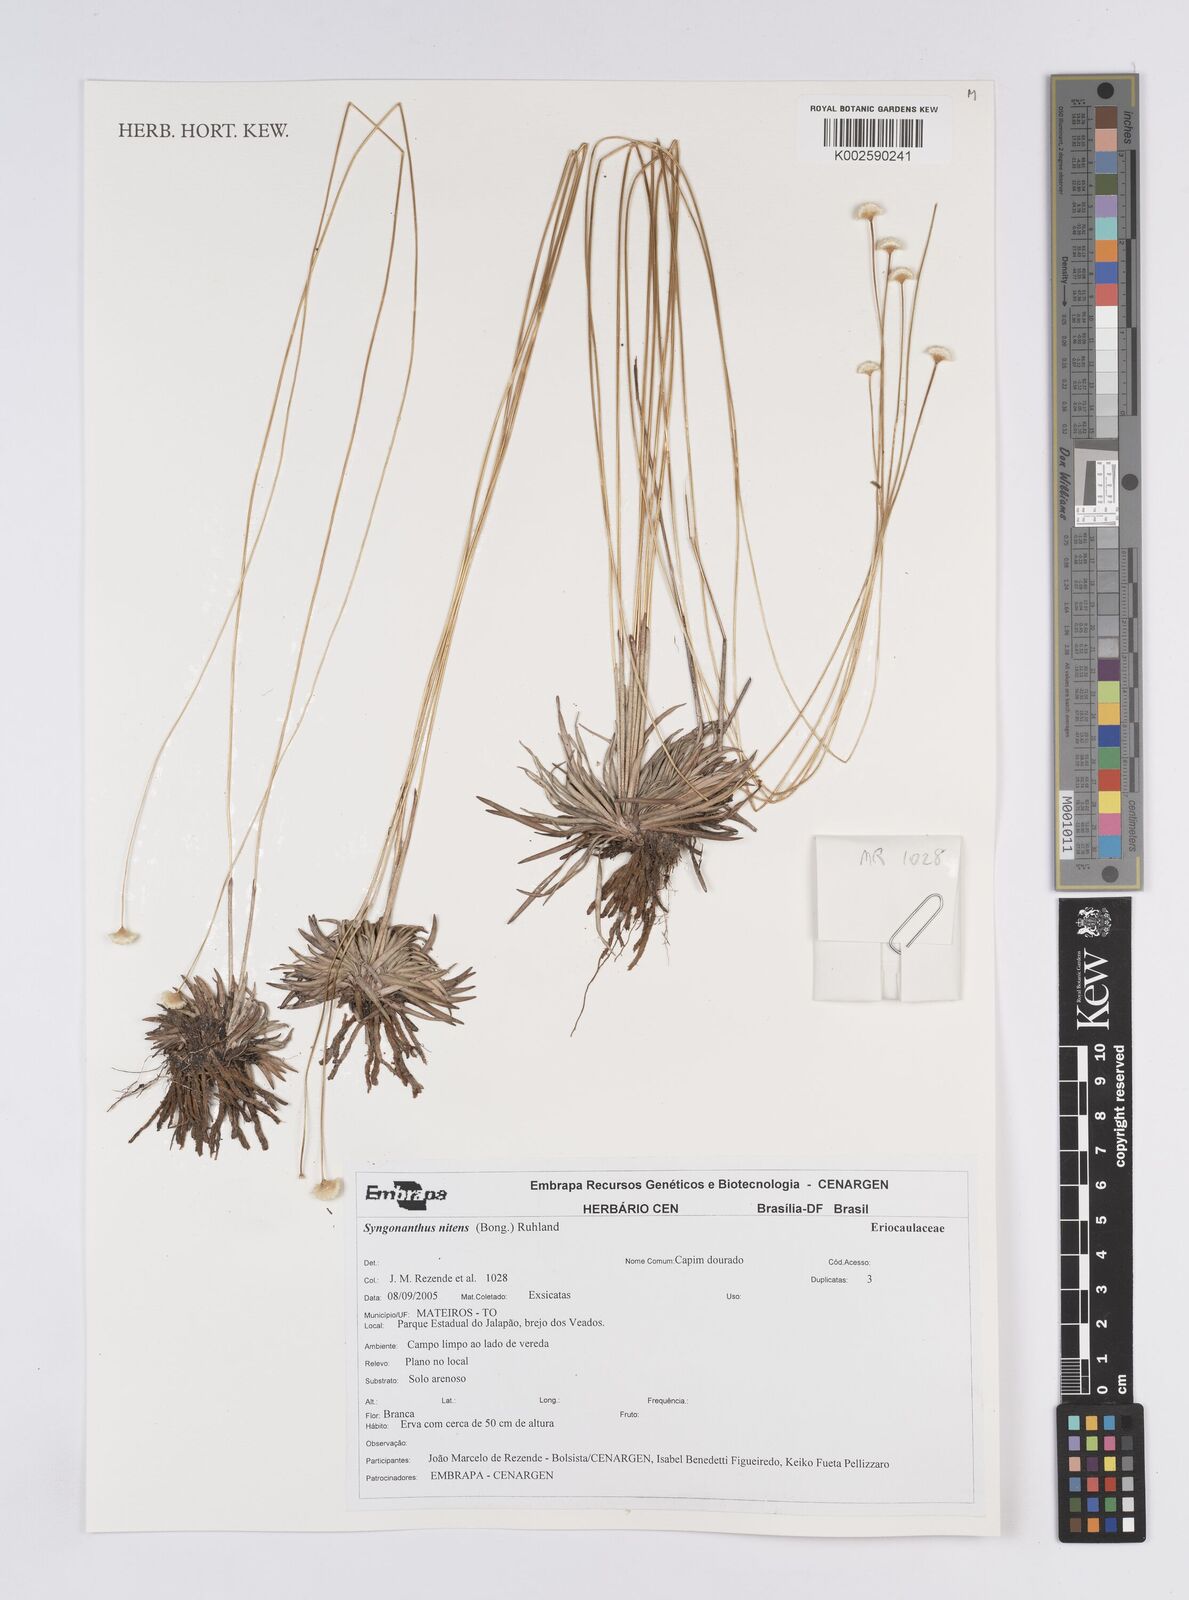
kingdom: Plantae
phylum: Tracheophyta
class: Liliopsida
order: Poales
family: Eriocaulaceae
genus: Syngonanthus
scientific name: Syngonanthus nitens
